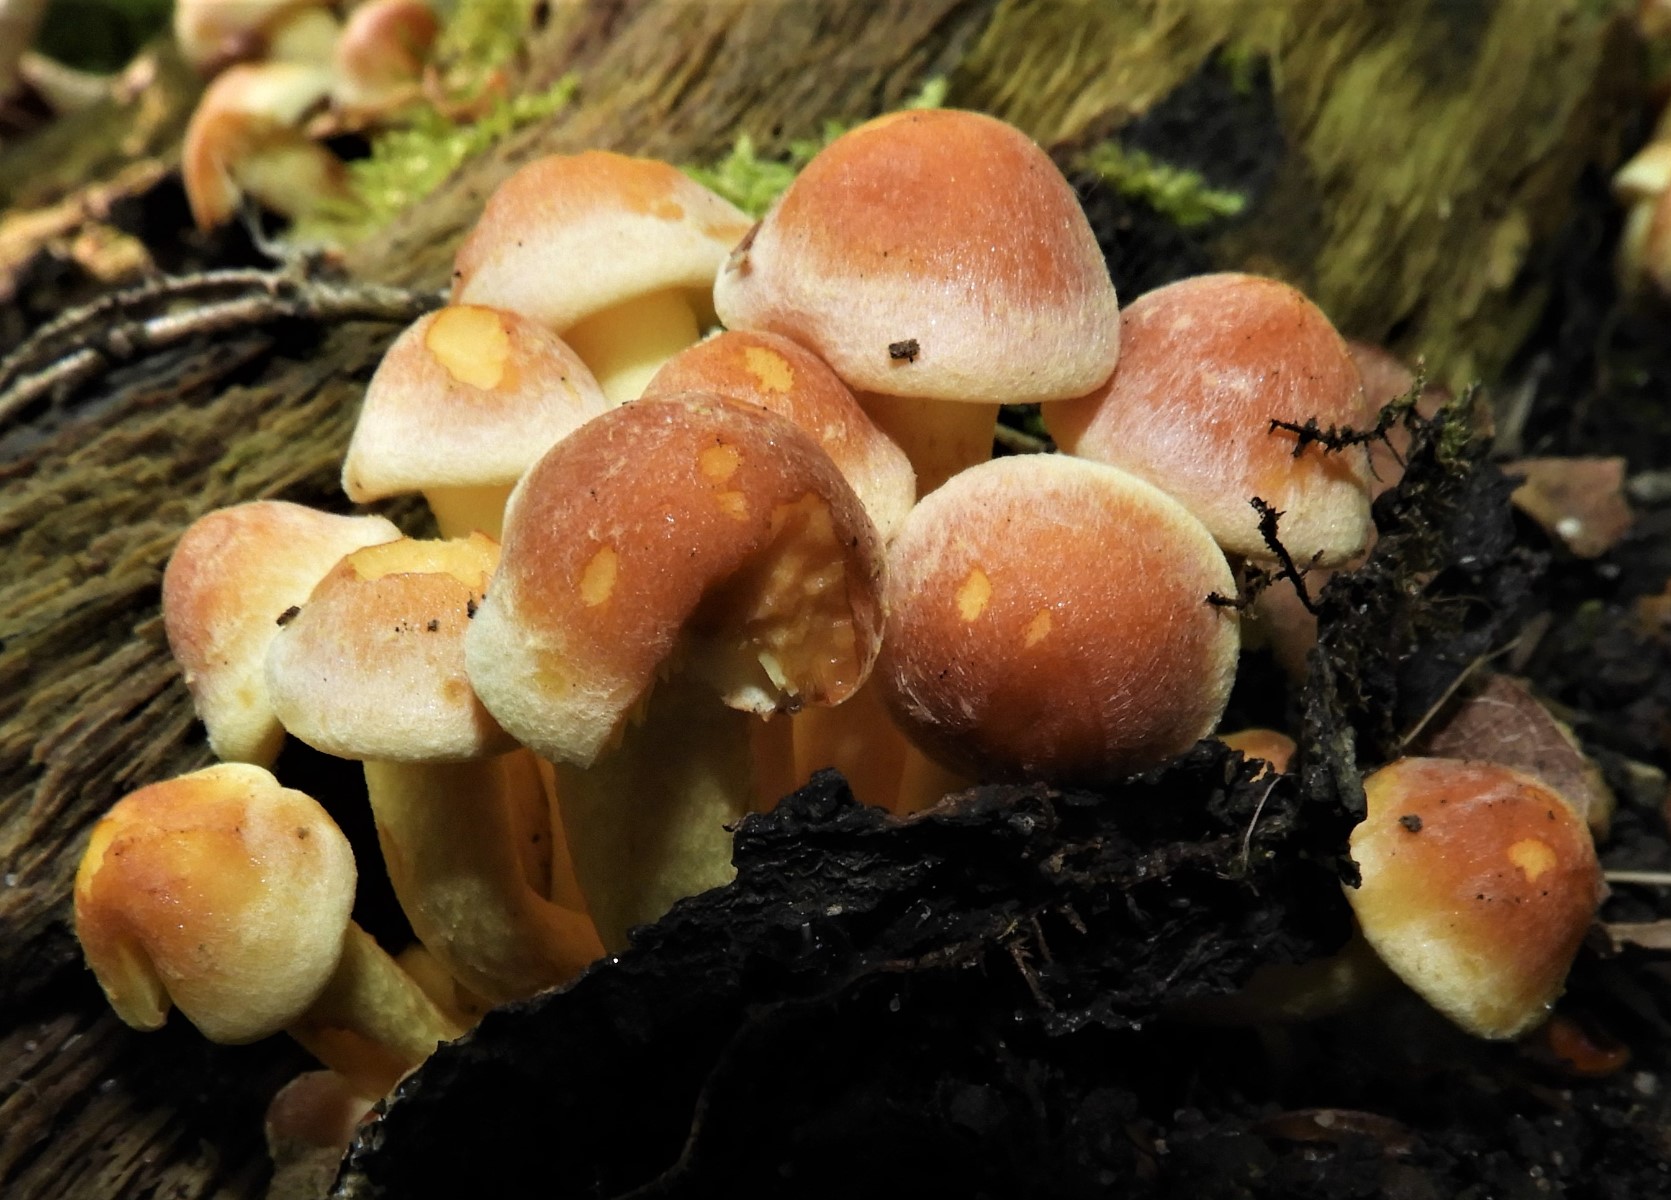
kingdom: Fungi
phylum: Basidiomycota
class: Agaricomycetes
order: Agaricales
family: Strophariaceae
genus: Hypholoma
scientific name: Hypholoma fasciculare
